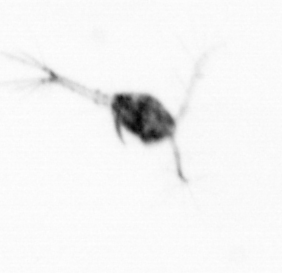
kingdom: Animalia
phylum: Arthropoda
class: Copepoda
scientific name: Copepoda
